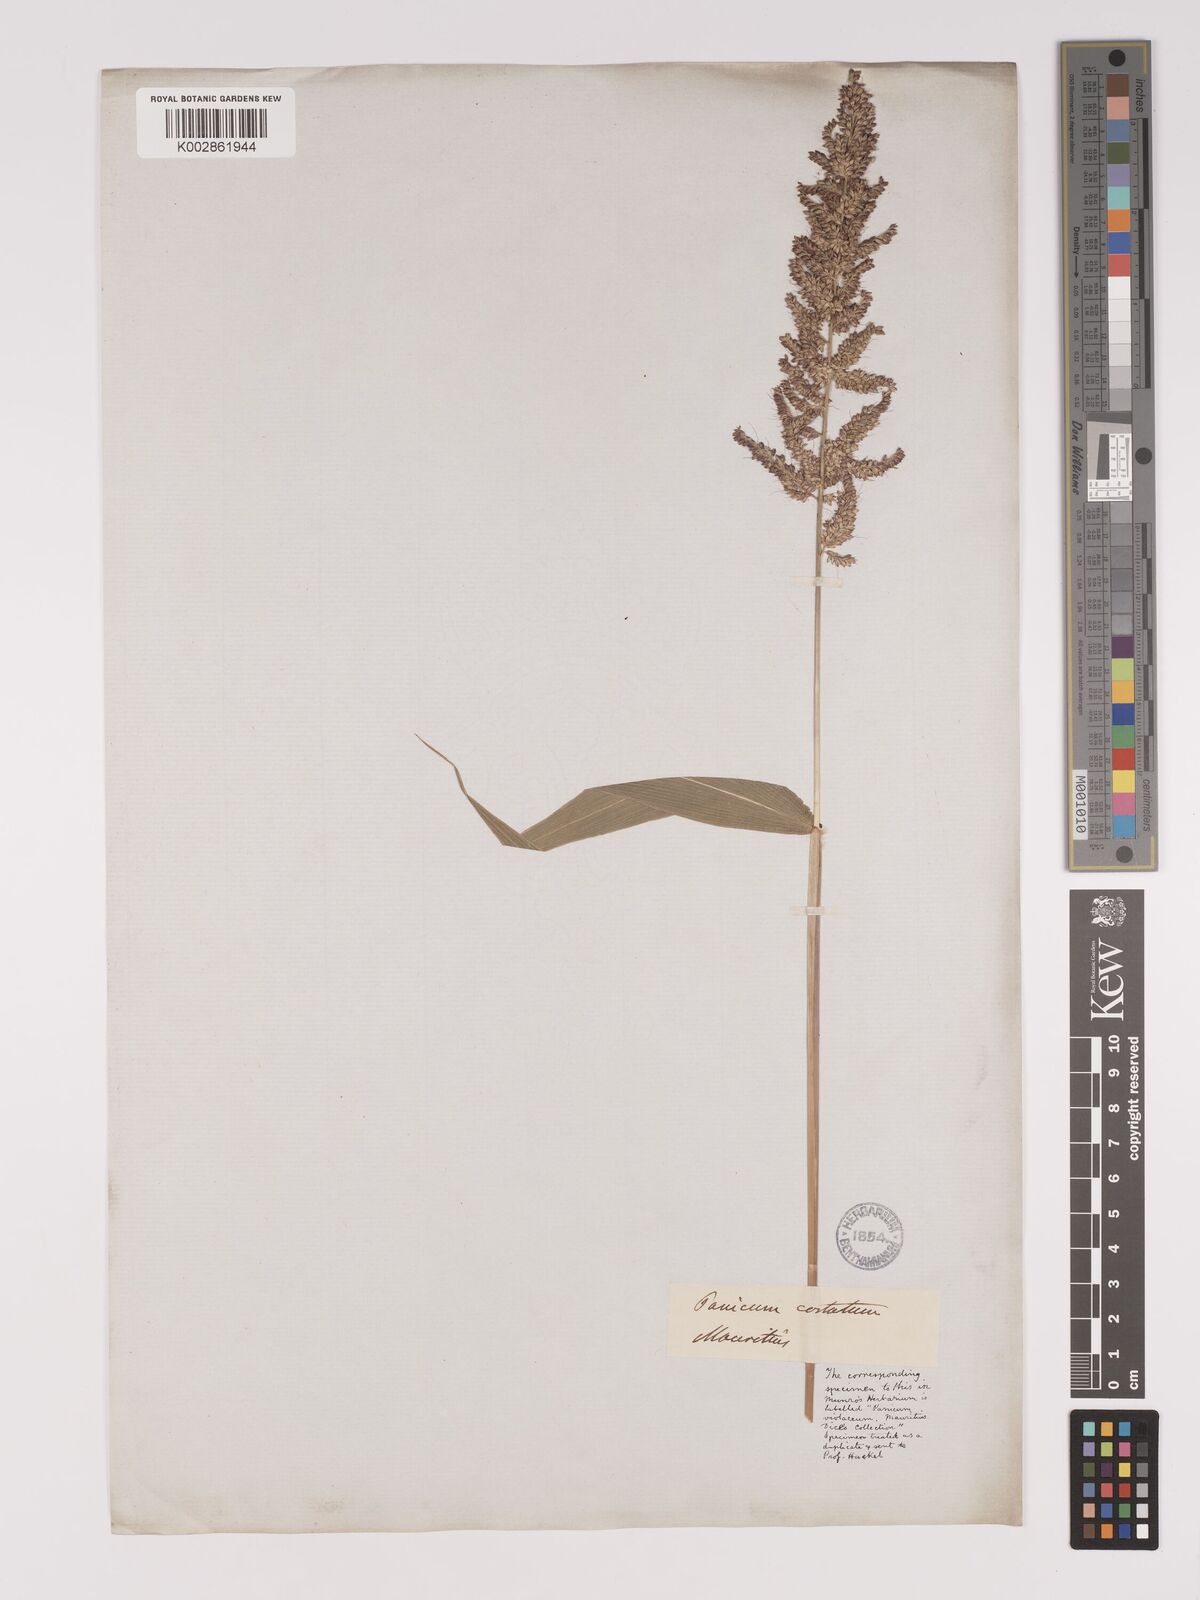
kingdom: Plantae
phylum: Tracheophyta
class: Liliopsida
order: Poales
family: Poaceae
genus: Setaria
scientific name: Setaria barbata
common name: East indian bristlegrass
